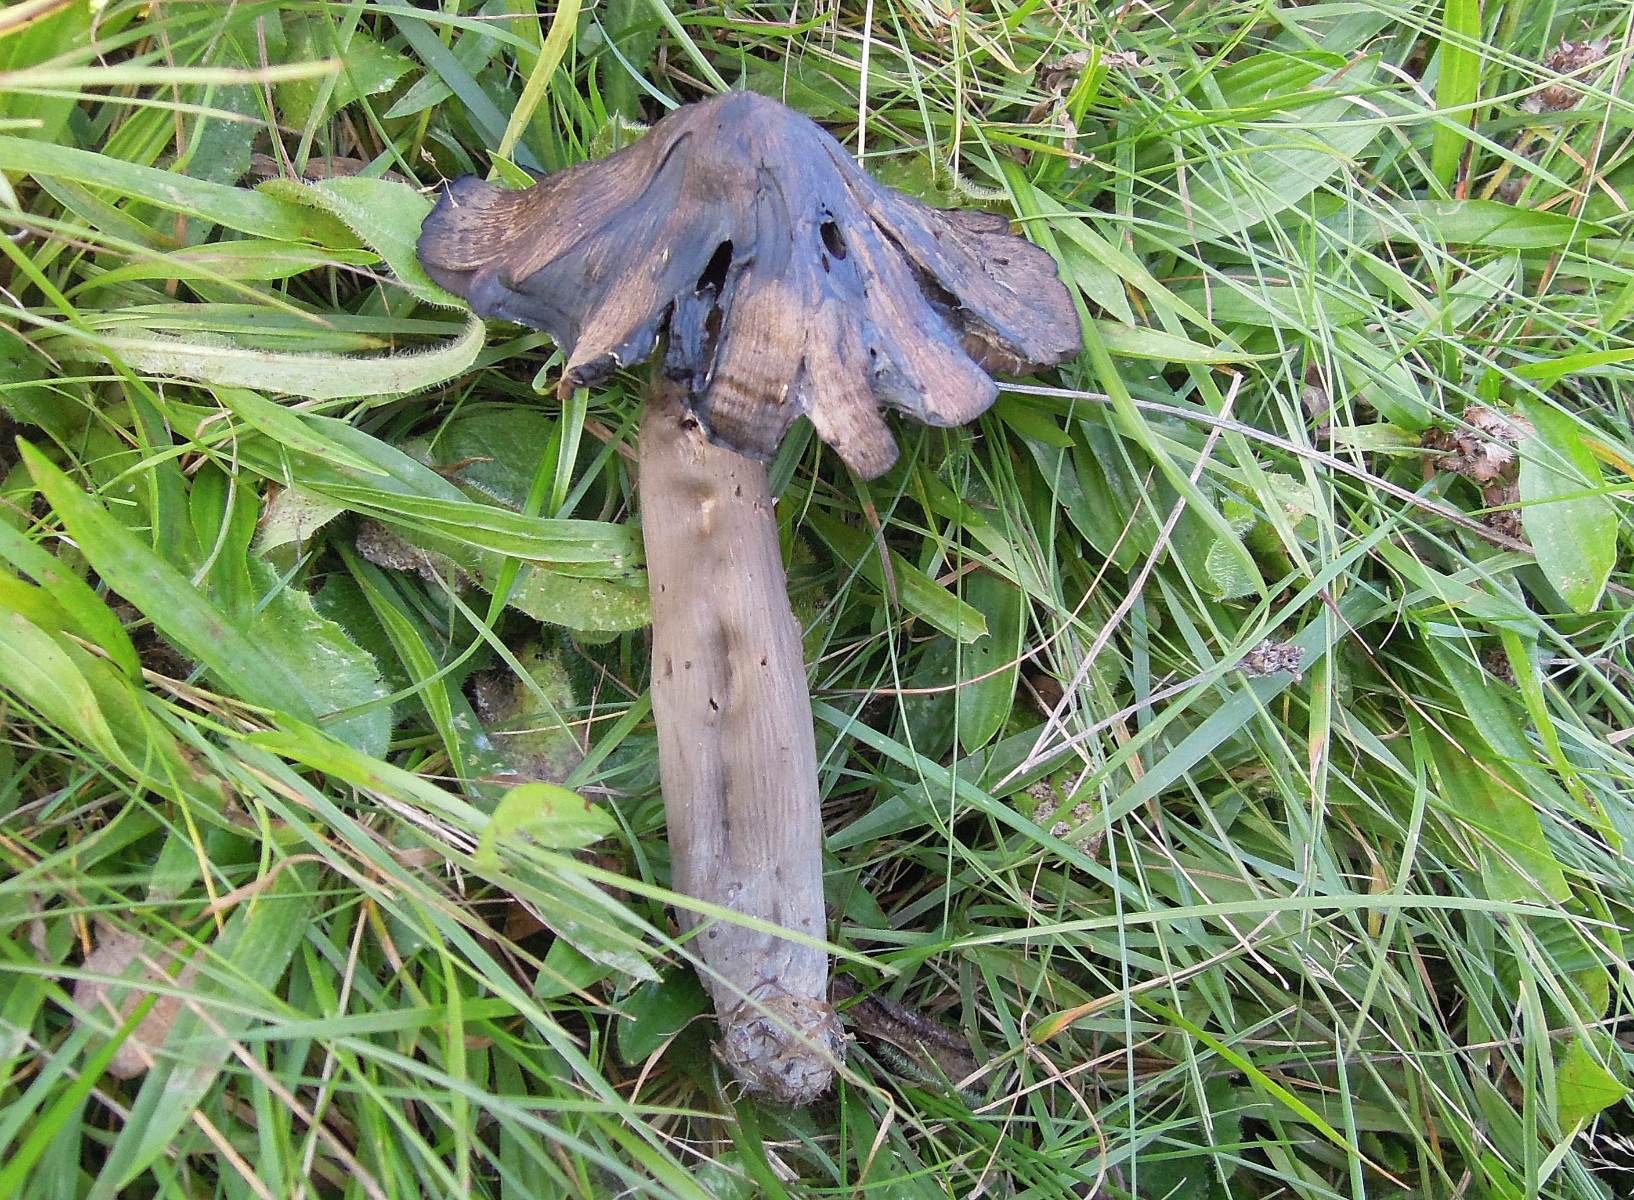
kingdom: Fungi
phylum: Basidiomycota
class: Agaricomycetes
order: Agaricales
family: Hygrophoraceae
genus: Neohygrocybe
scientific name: Neohygrocybe ovina
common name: rødmende vokshat
